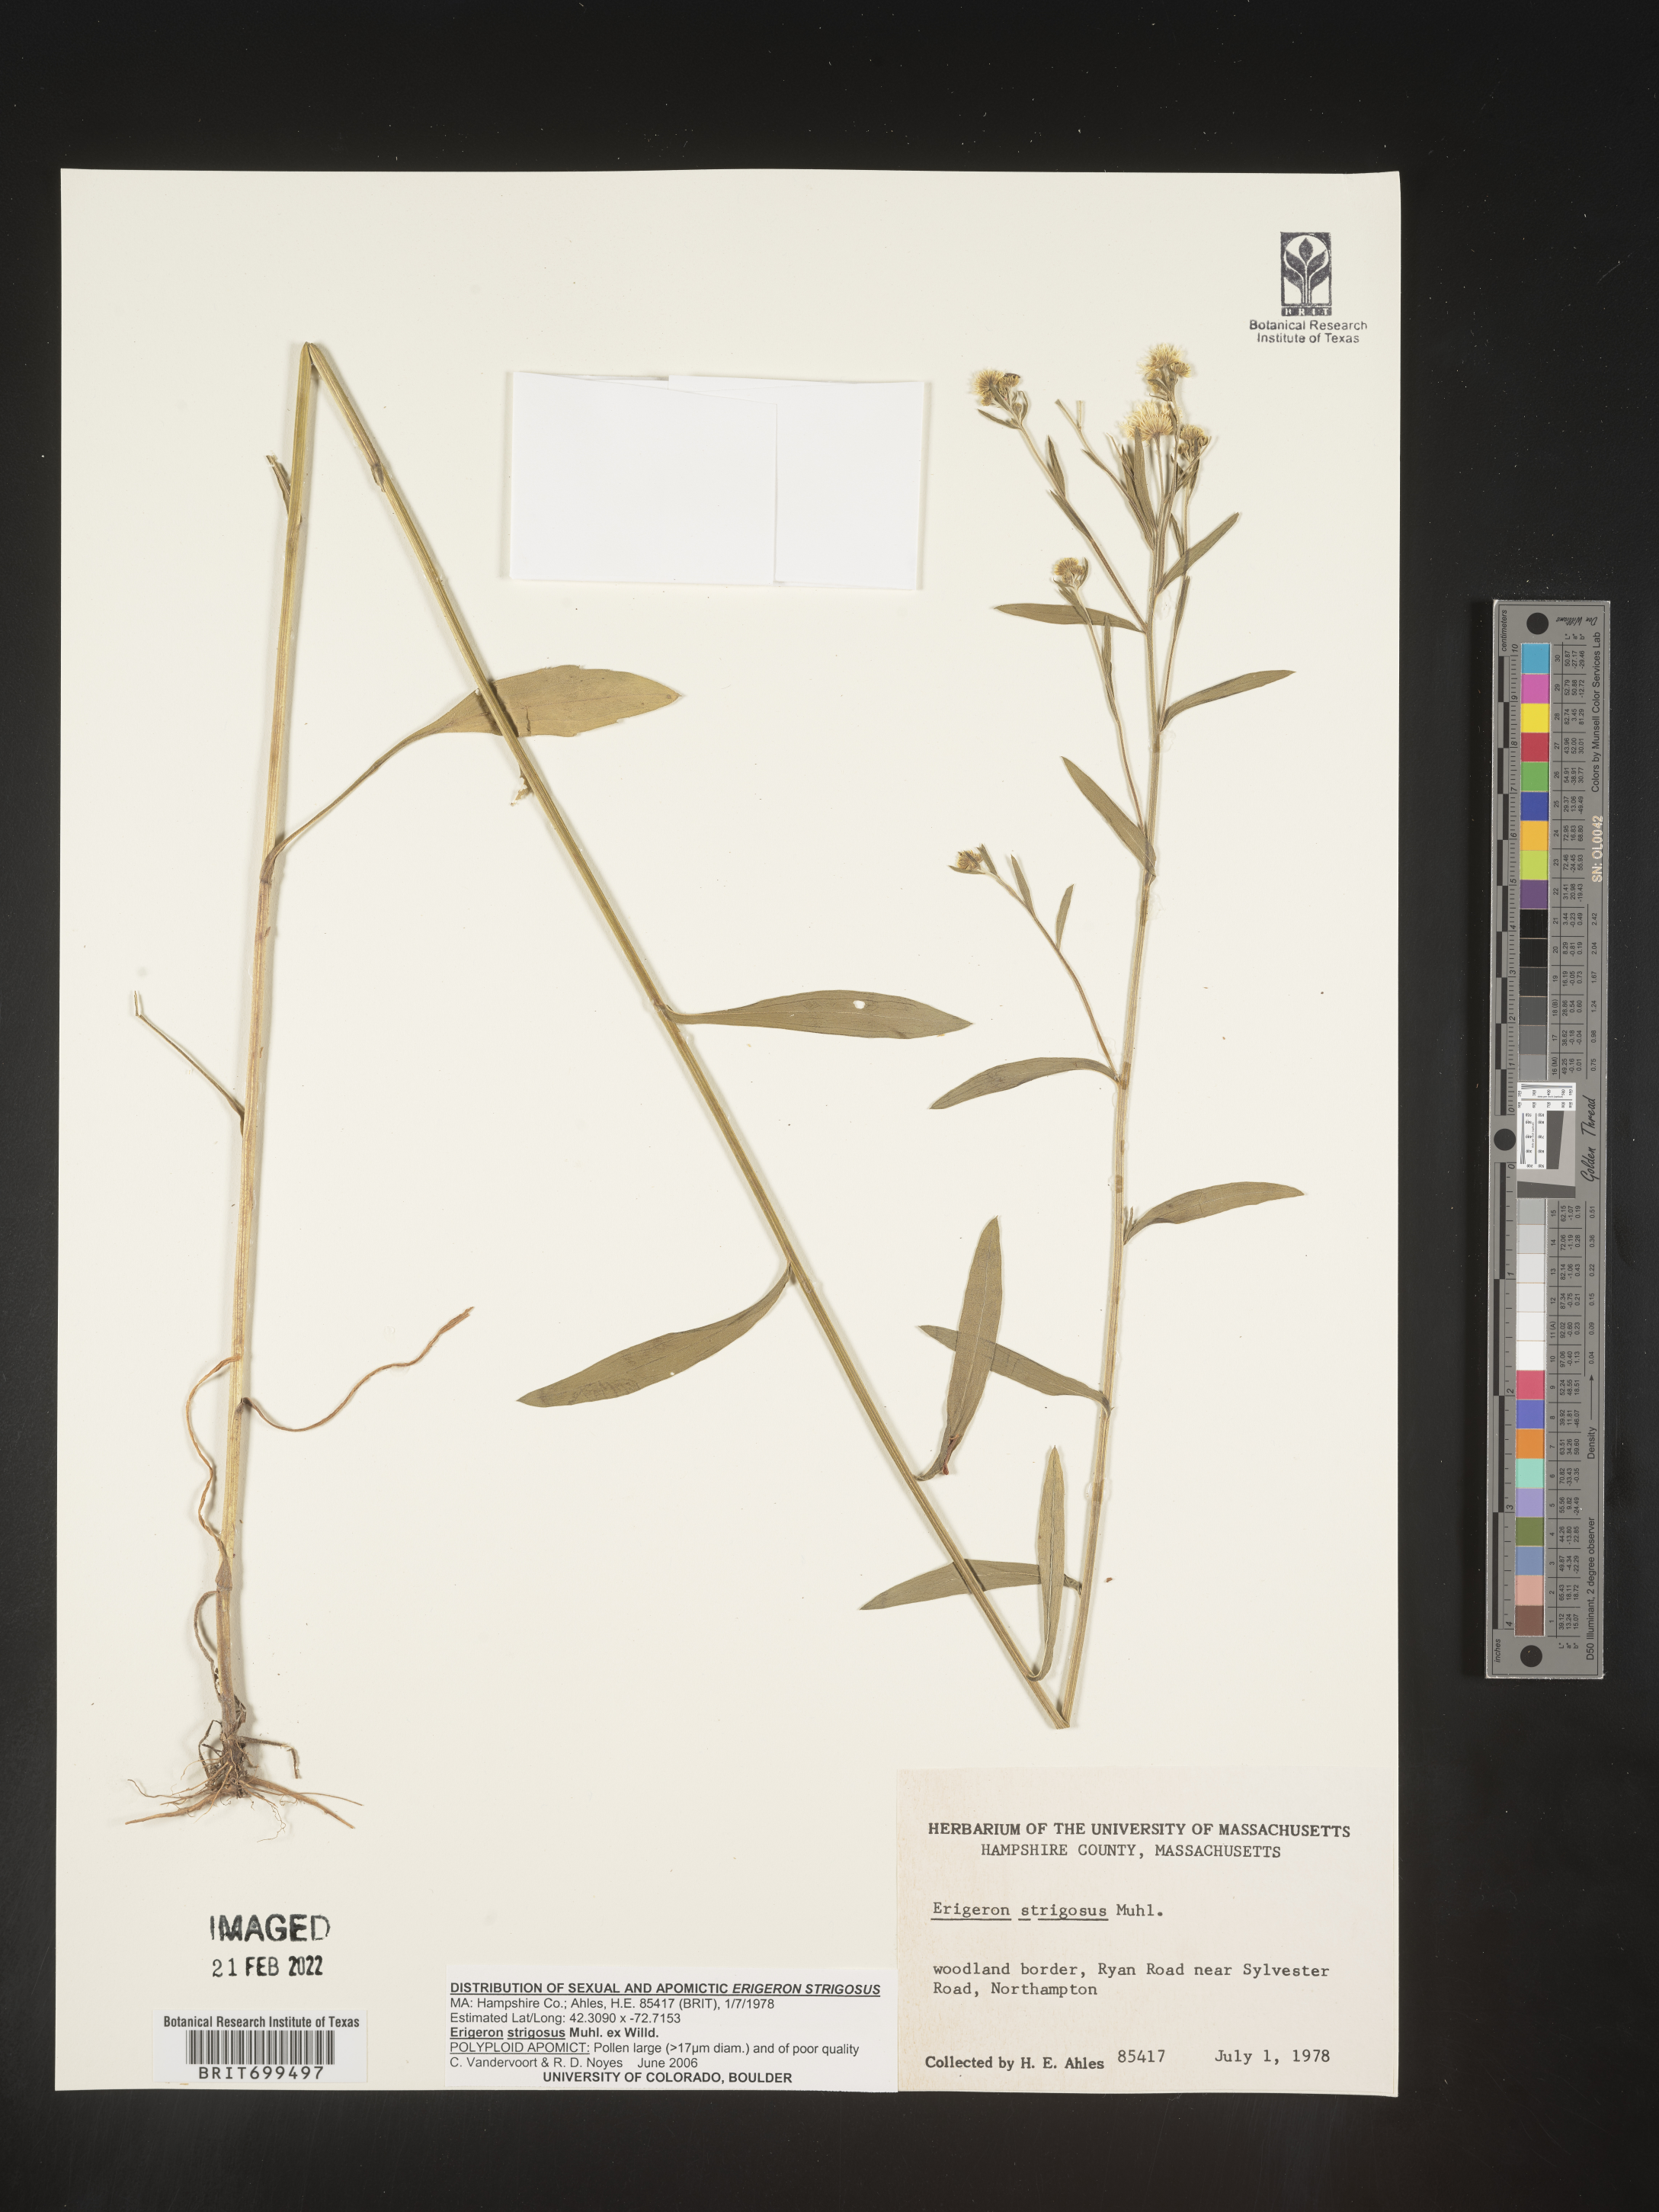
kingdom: Plantae
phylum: Tracheophyta
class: Magnoliopsida
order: Asterales
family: Asteraceae
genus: Erigeron
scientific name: Erigeron strigosus
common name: Common eastern fleabane
